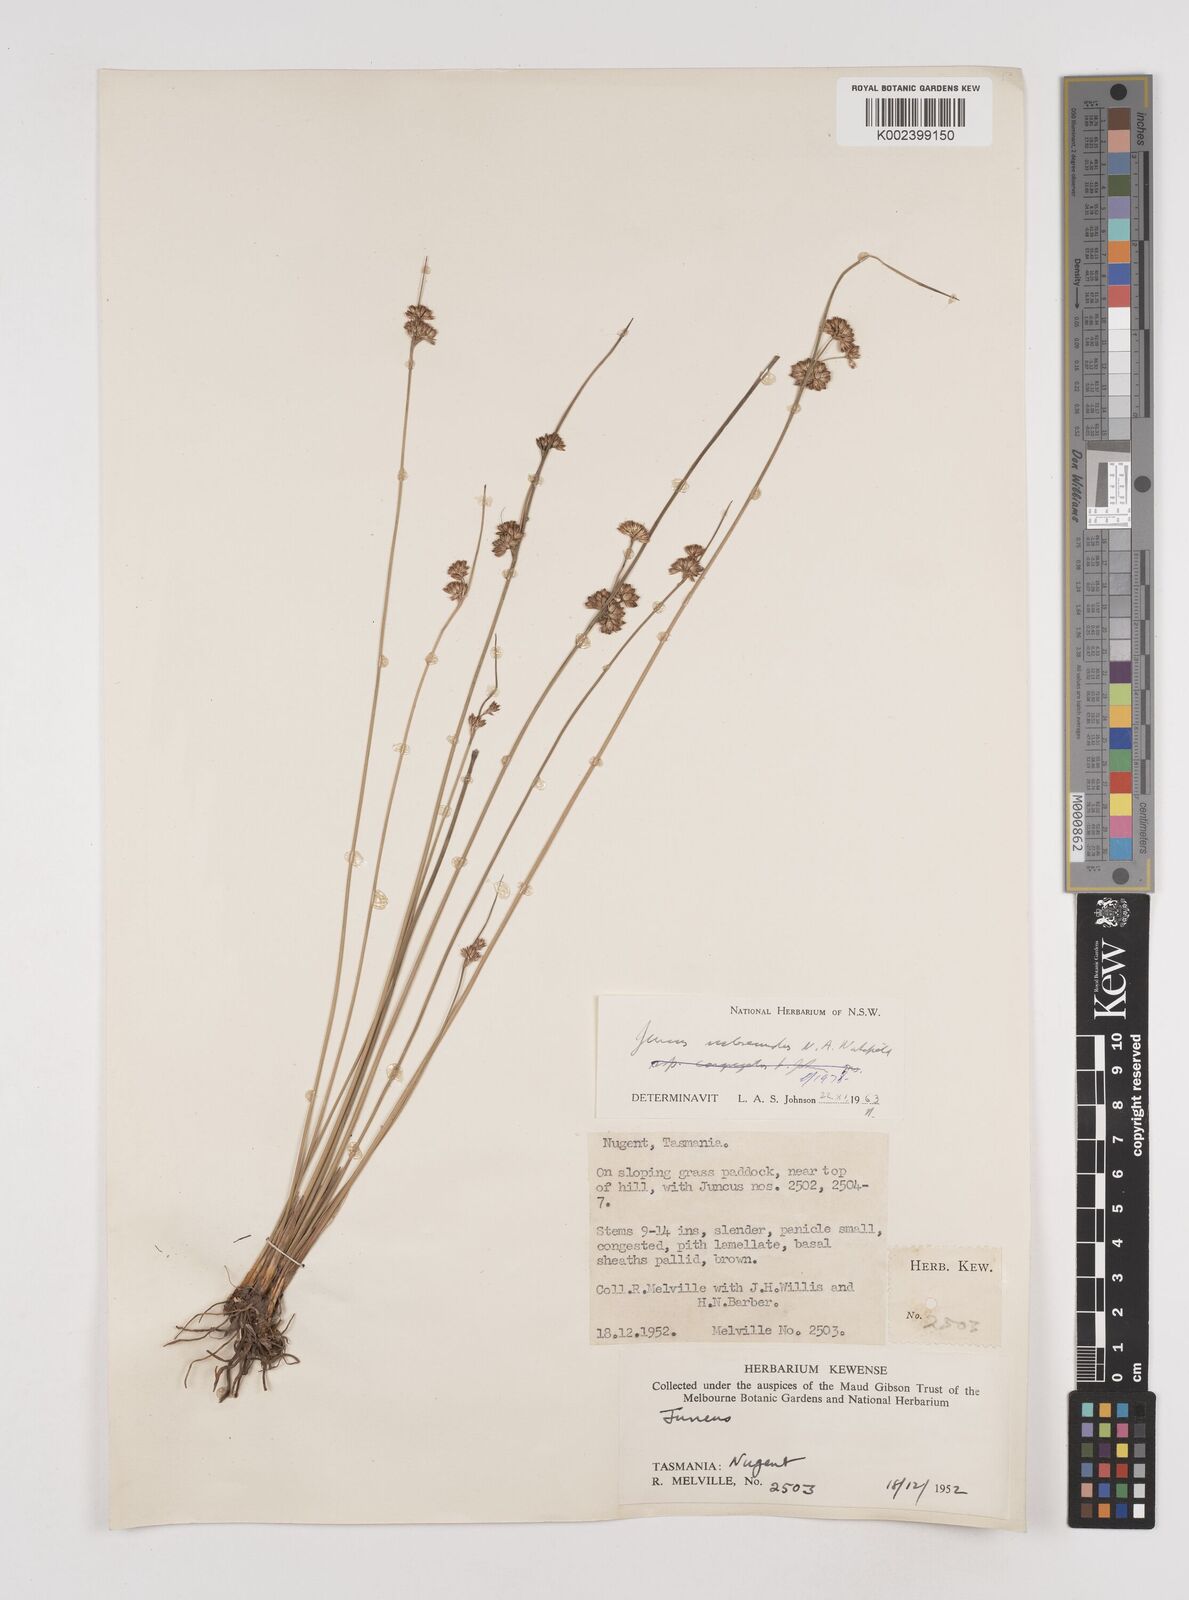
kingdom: Plantae
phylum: Tracheophyta
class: Liliopsida
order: Poales
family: Juncaceae
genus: Juncus
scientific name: Juncus subsecundus
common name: Fingered rush
